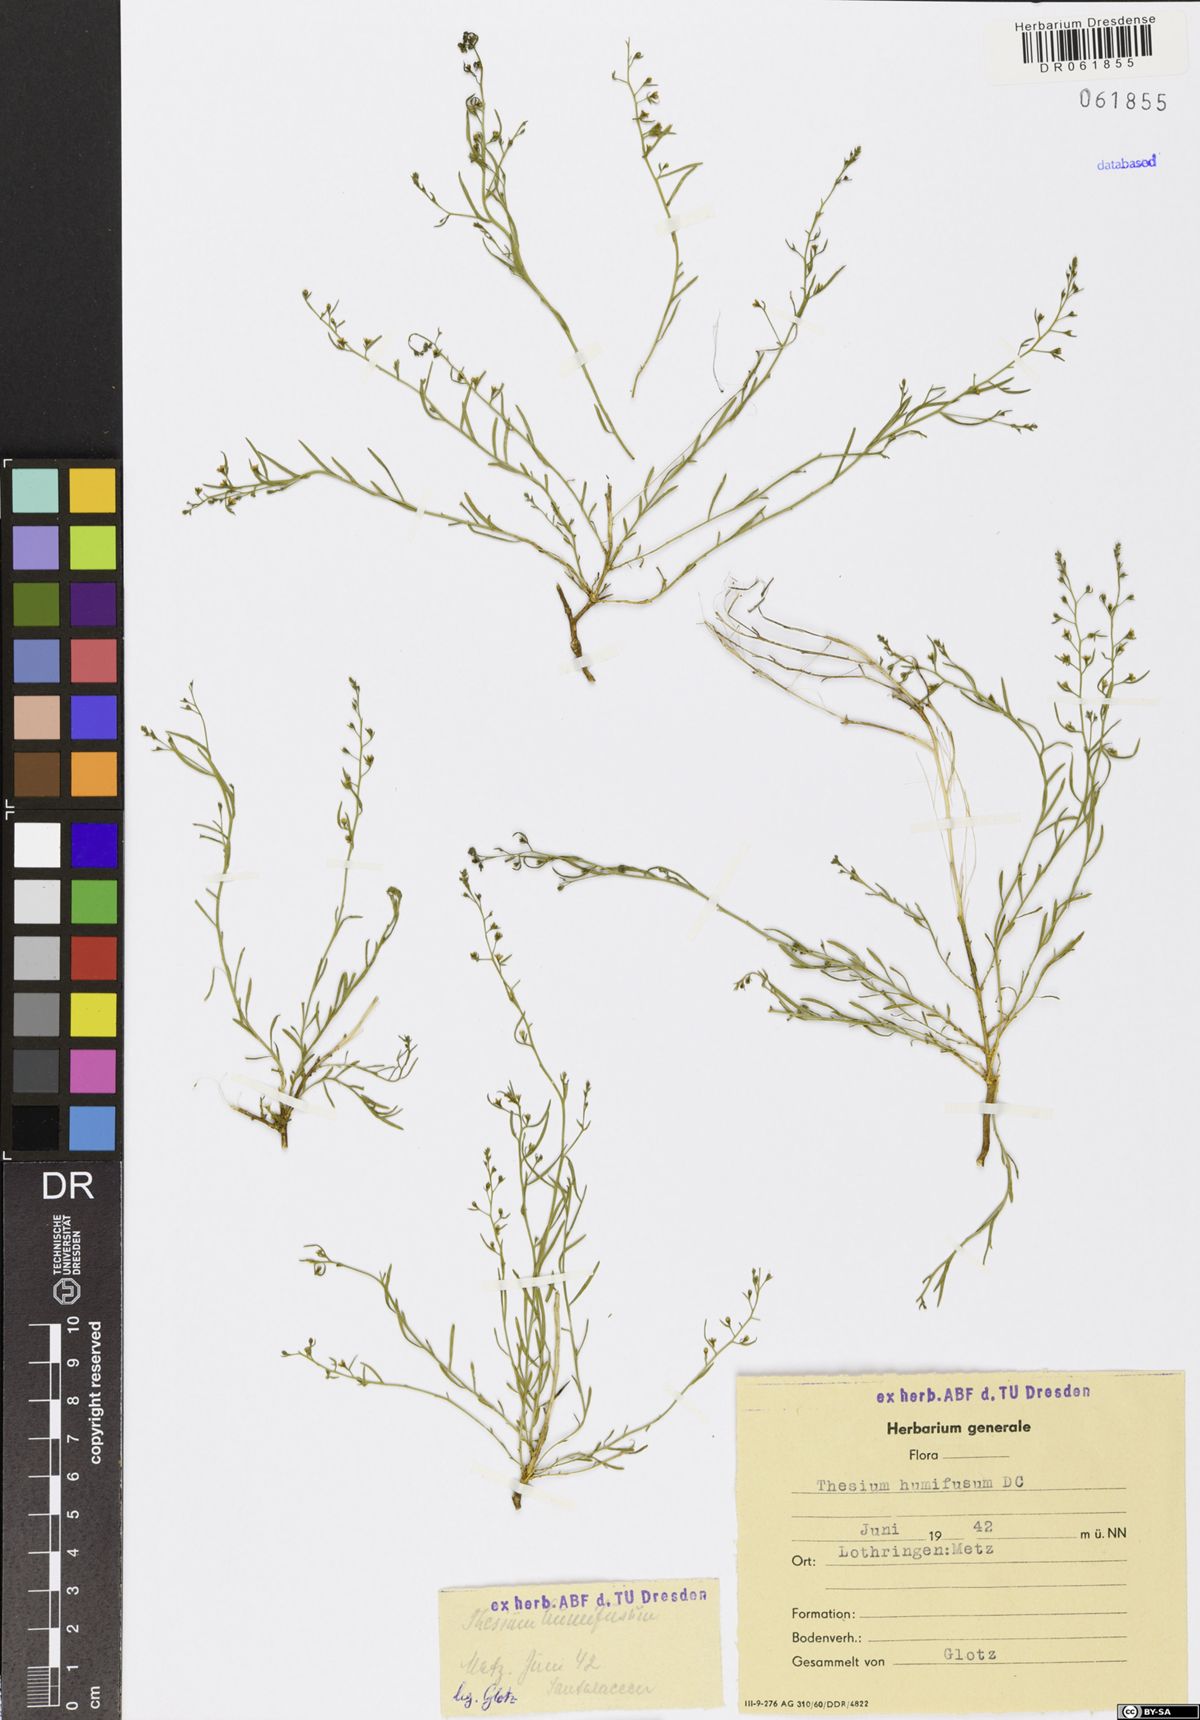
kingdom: Plantae
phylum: Tracheophyta
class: Magnoliopsida
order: Santalales
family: Thesiaceae
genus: Thesium
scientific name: Thesium humifusum
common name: Bastard-toadflax
